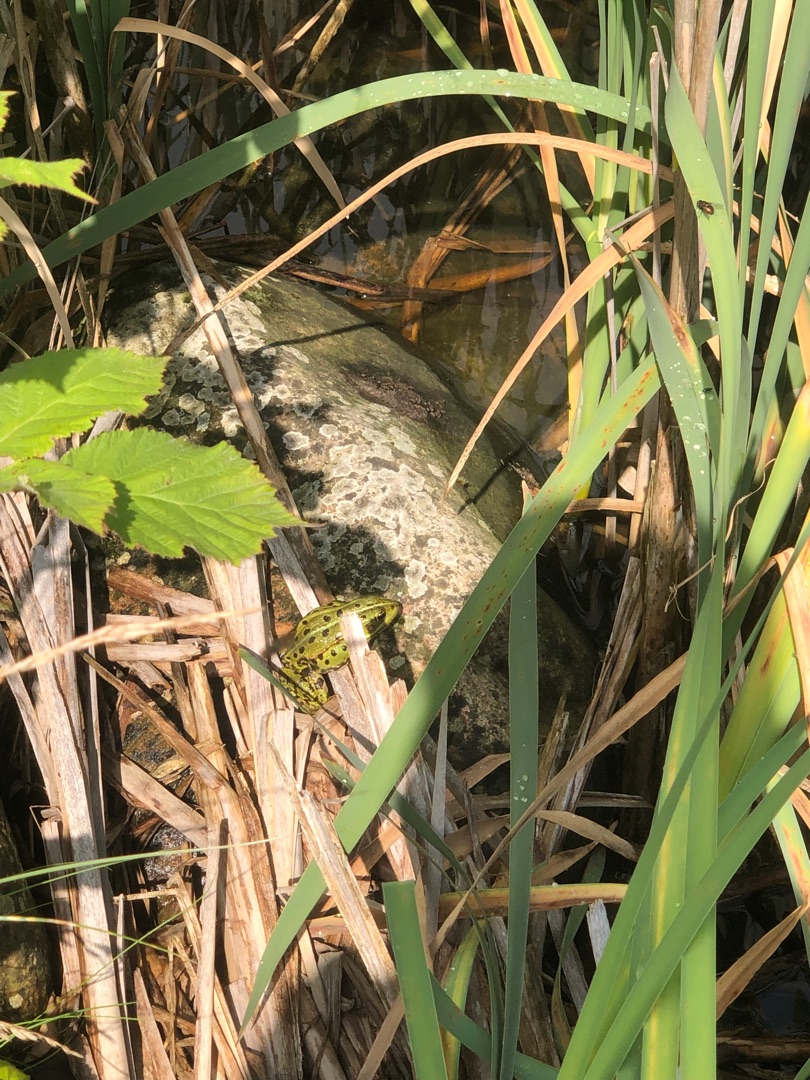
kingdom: Animalia
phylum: Chordata
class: Amphibia
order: Anura
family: Ranidae
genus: Pelophylax
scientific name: Pelophylax lessonae
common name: Grøn frø
